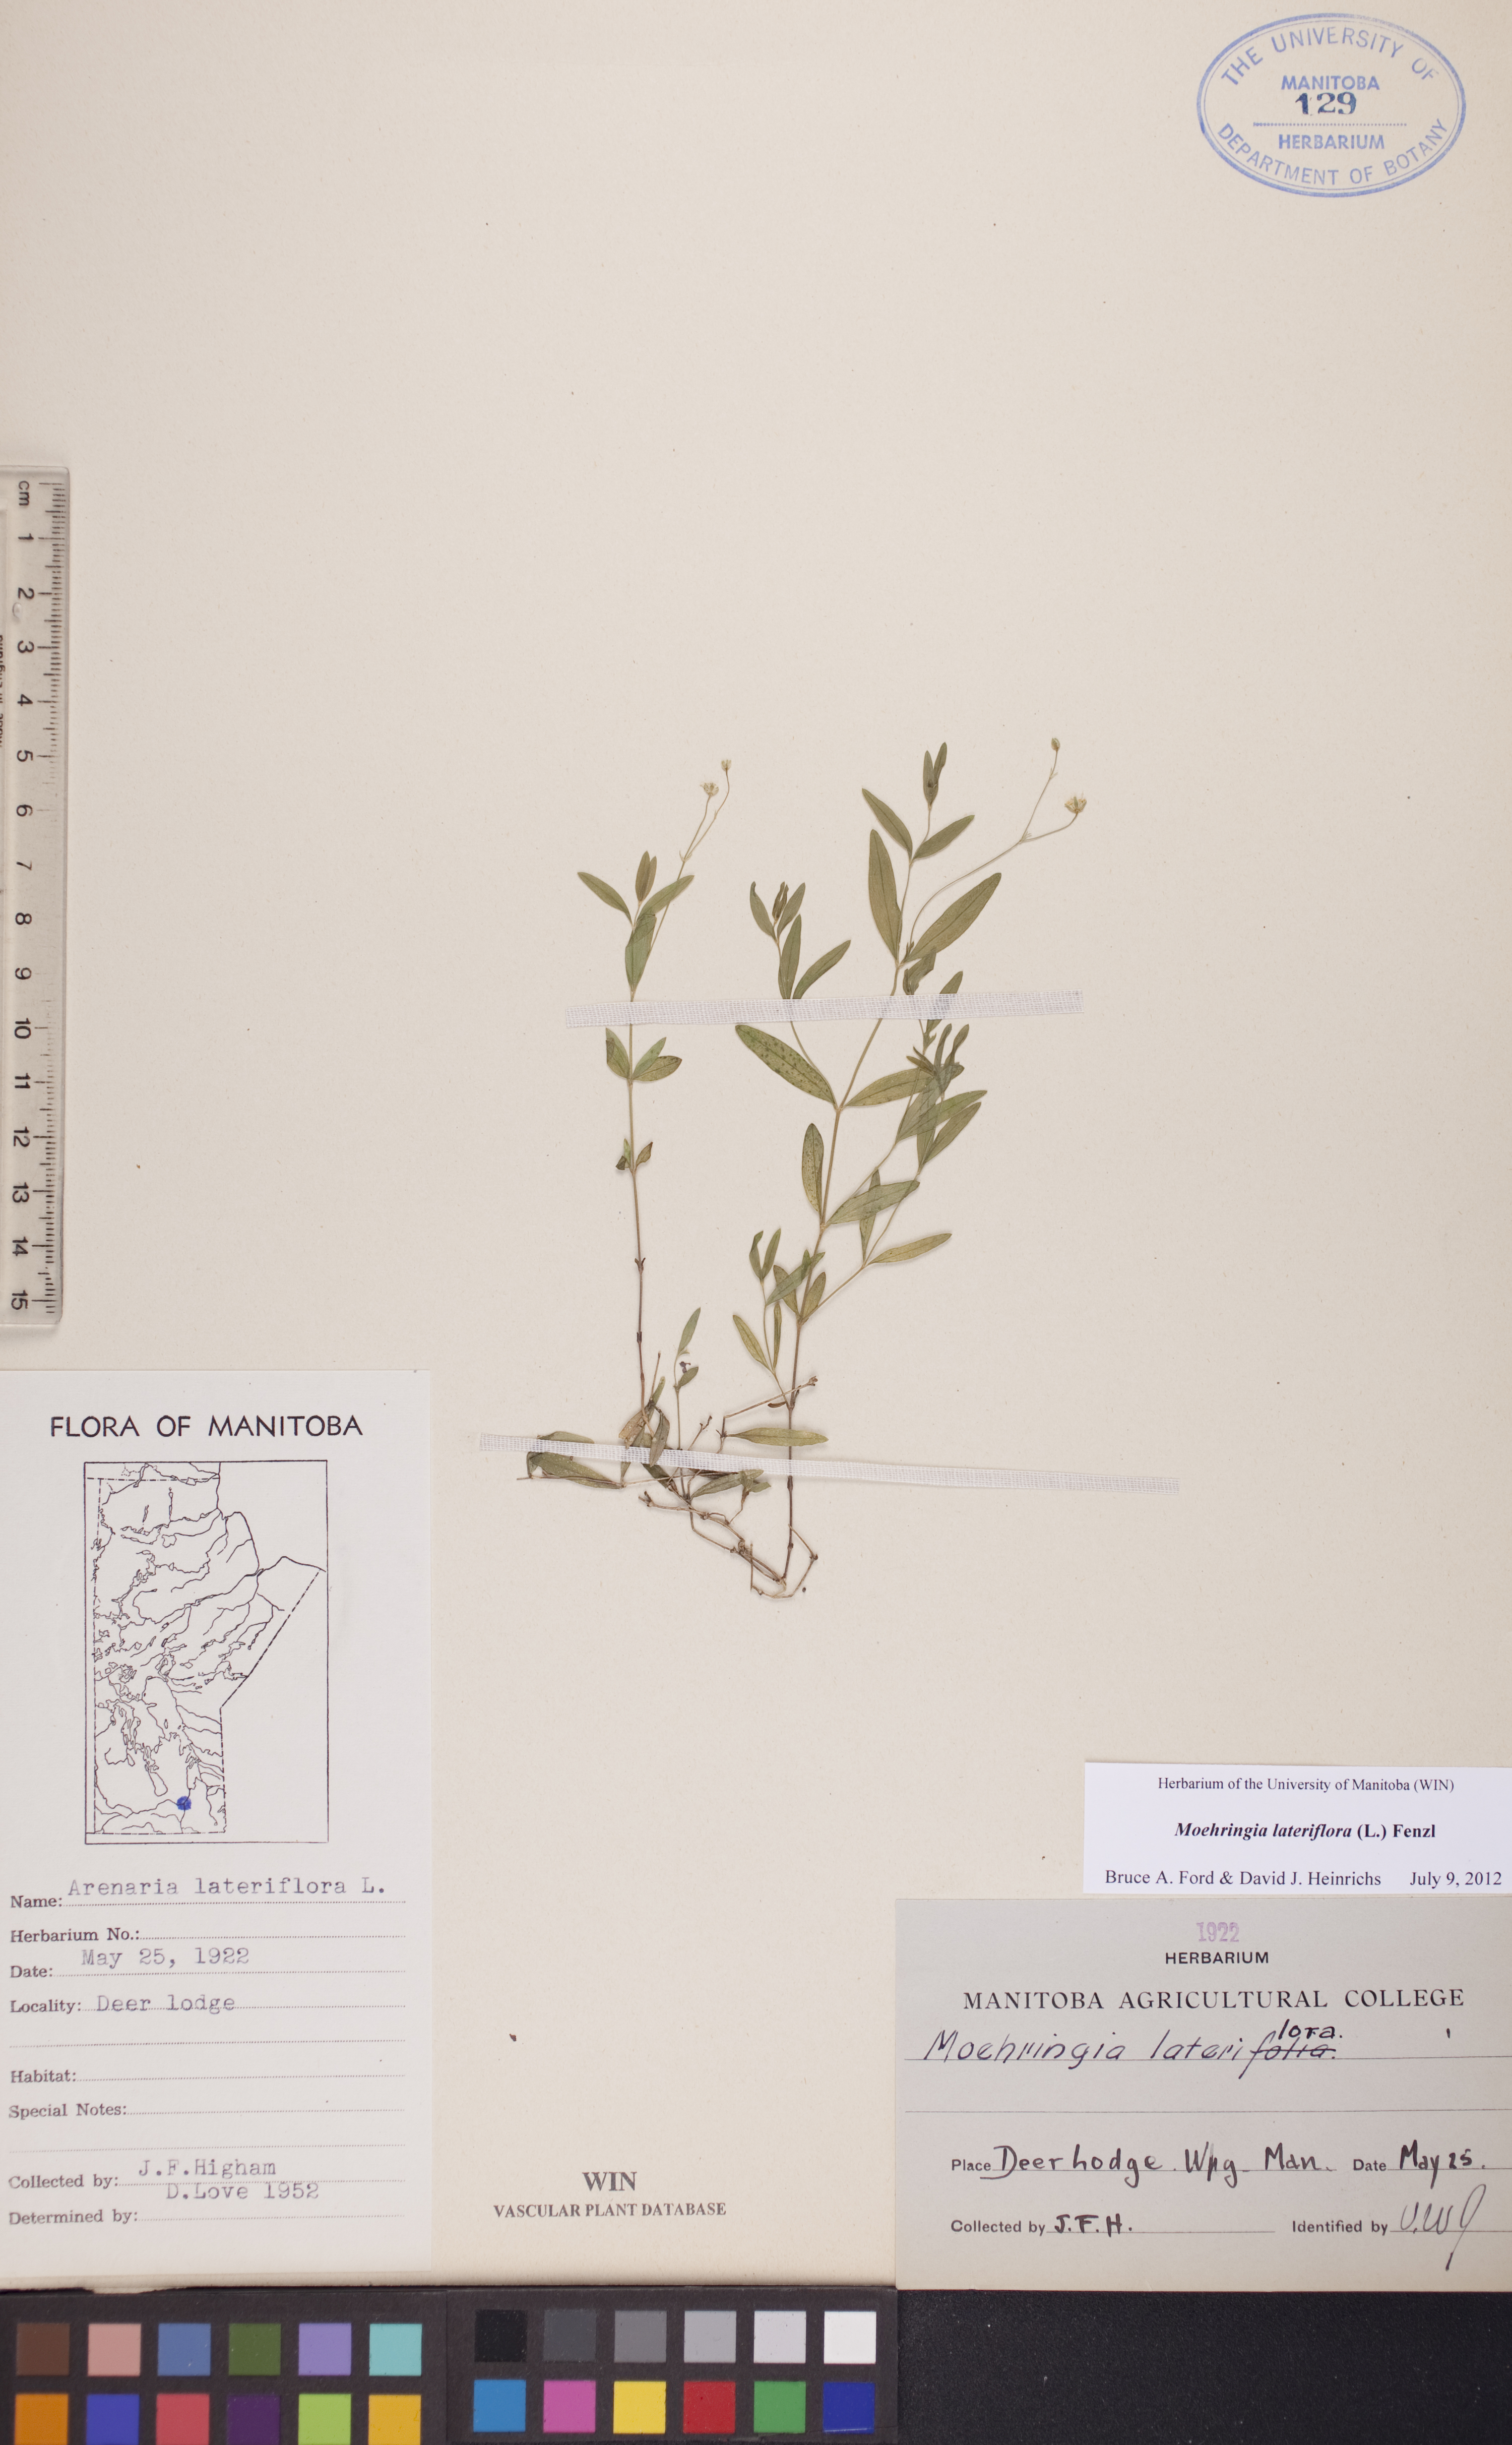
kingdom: Plantae
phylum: Tracheophyta
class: Magnoliopsida
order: Caryophyllales
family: Caryophyllaceae
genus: Moehringia
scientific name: Moehringia lateriflora
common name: Blunt-leaved sandwort
